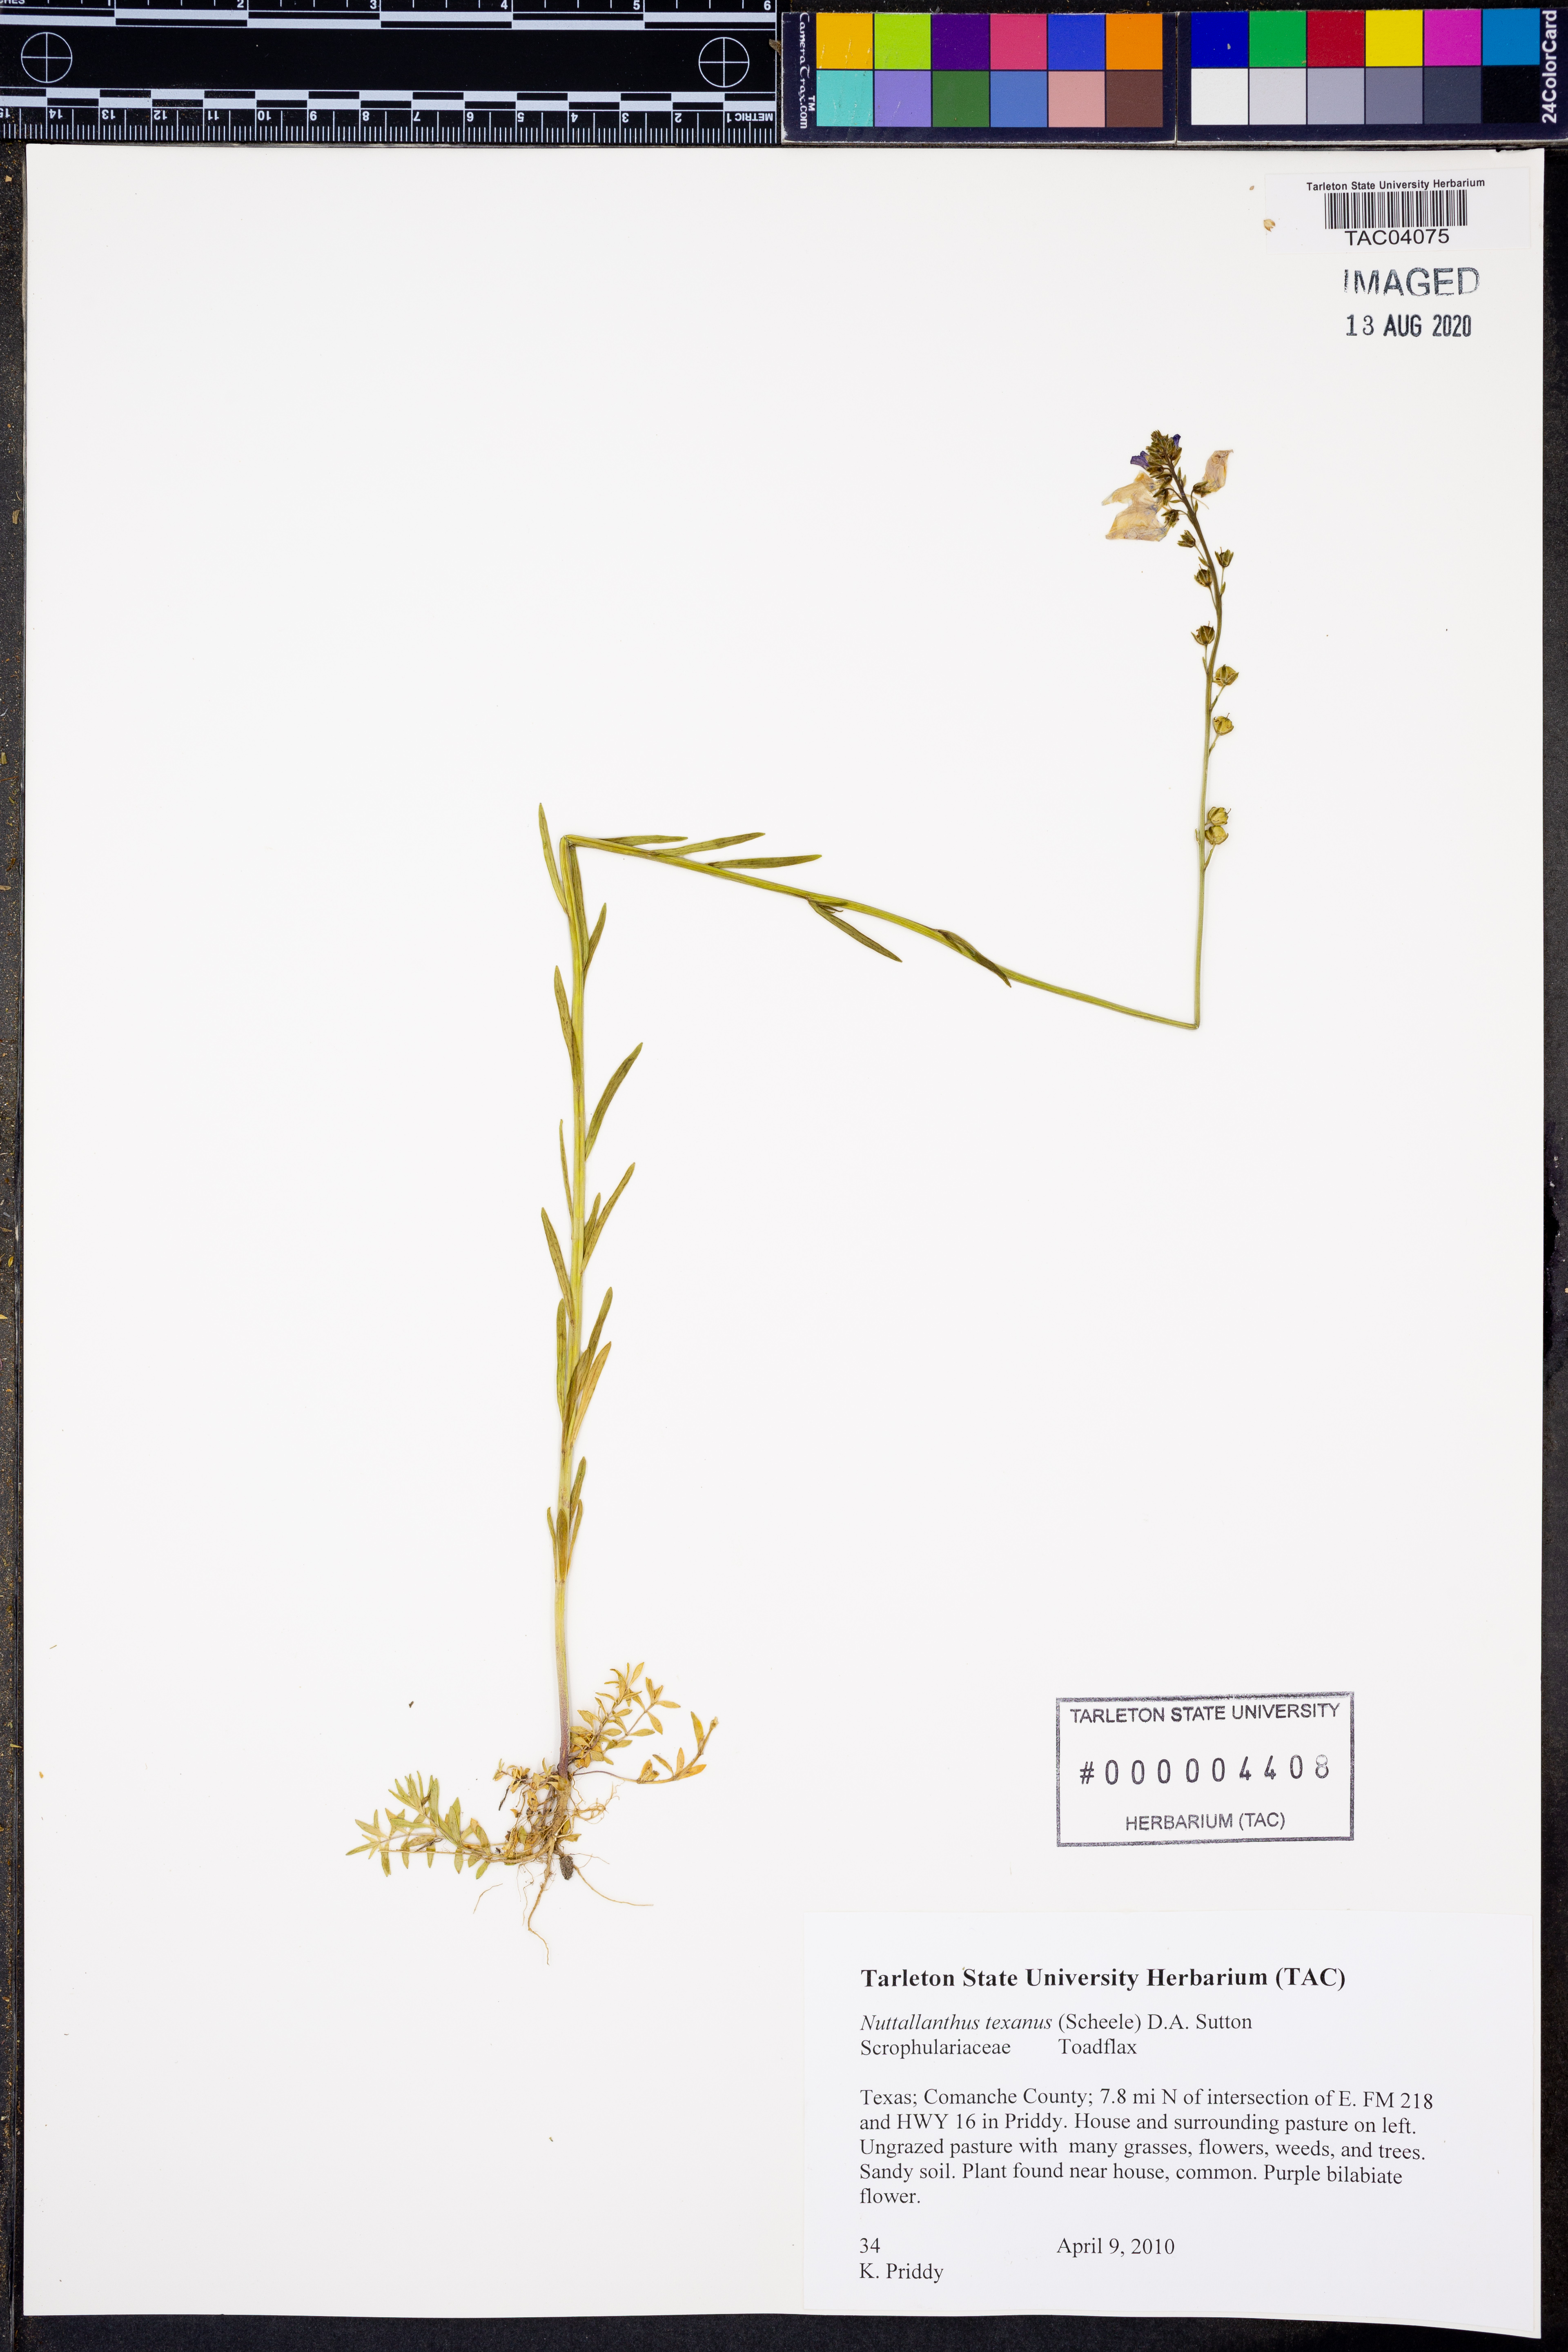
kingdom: Plantae
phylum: Tracheophyta
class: Magnoliopsida
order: Lamiales
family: Plantaginaceae
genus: Nuttallanthus
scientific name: Nuttallanthus texanus
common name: Texas toadflax
